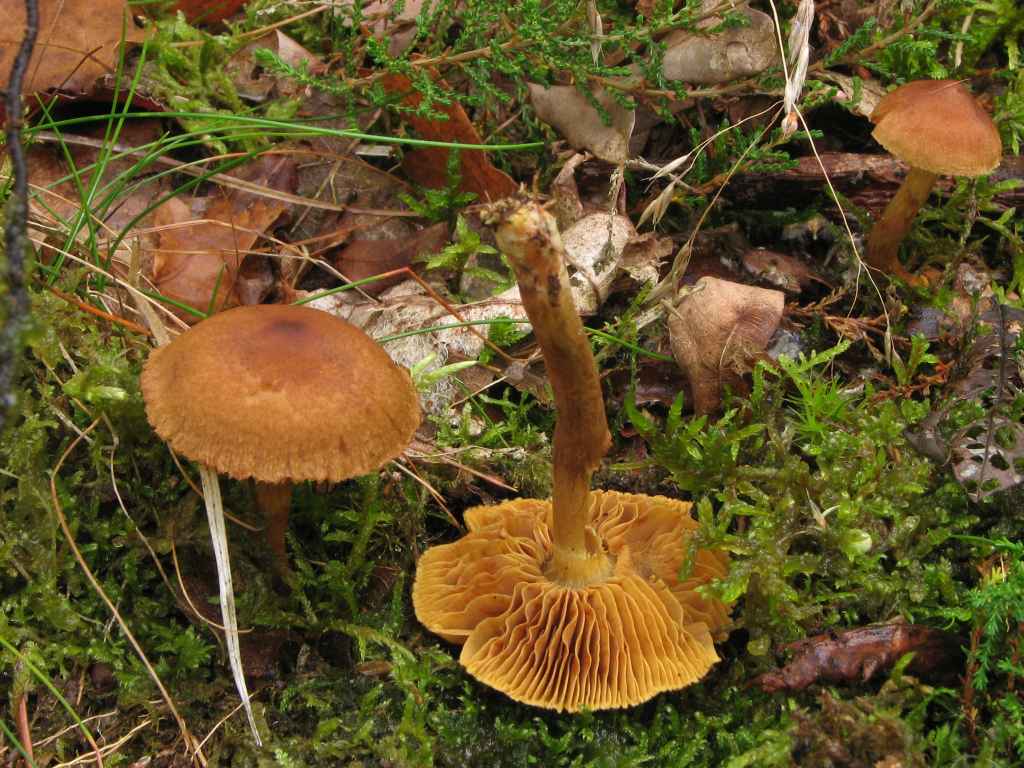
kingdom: Fungi
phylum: Basidiomycota
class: Agaricomycetes
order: Agaricales
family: Cortinariaceae
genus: Cortinarius
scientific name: Cortinarius
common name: gulbladet slørhat
